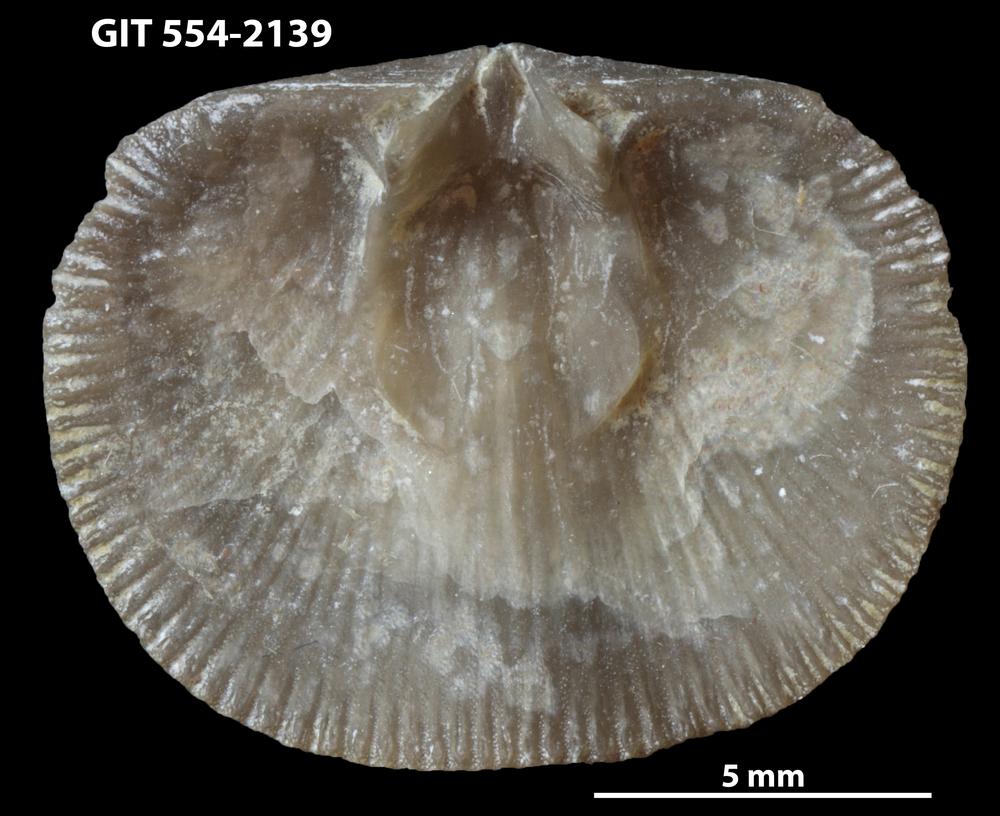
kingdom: Animalia
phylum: Brachiopoda
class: Rhynchonellata
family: Dalmanellidae
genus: Levenea
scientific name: Levenea Orthis canaliculata
